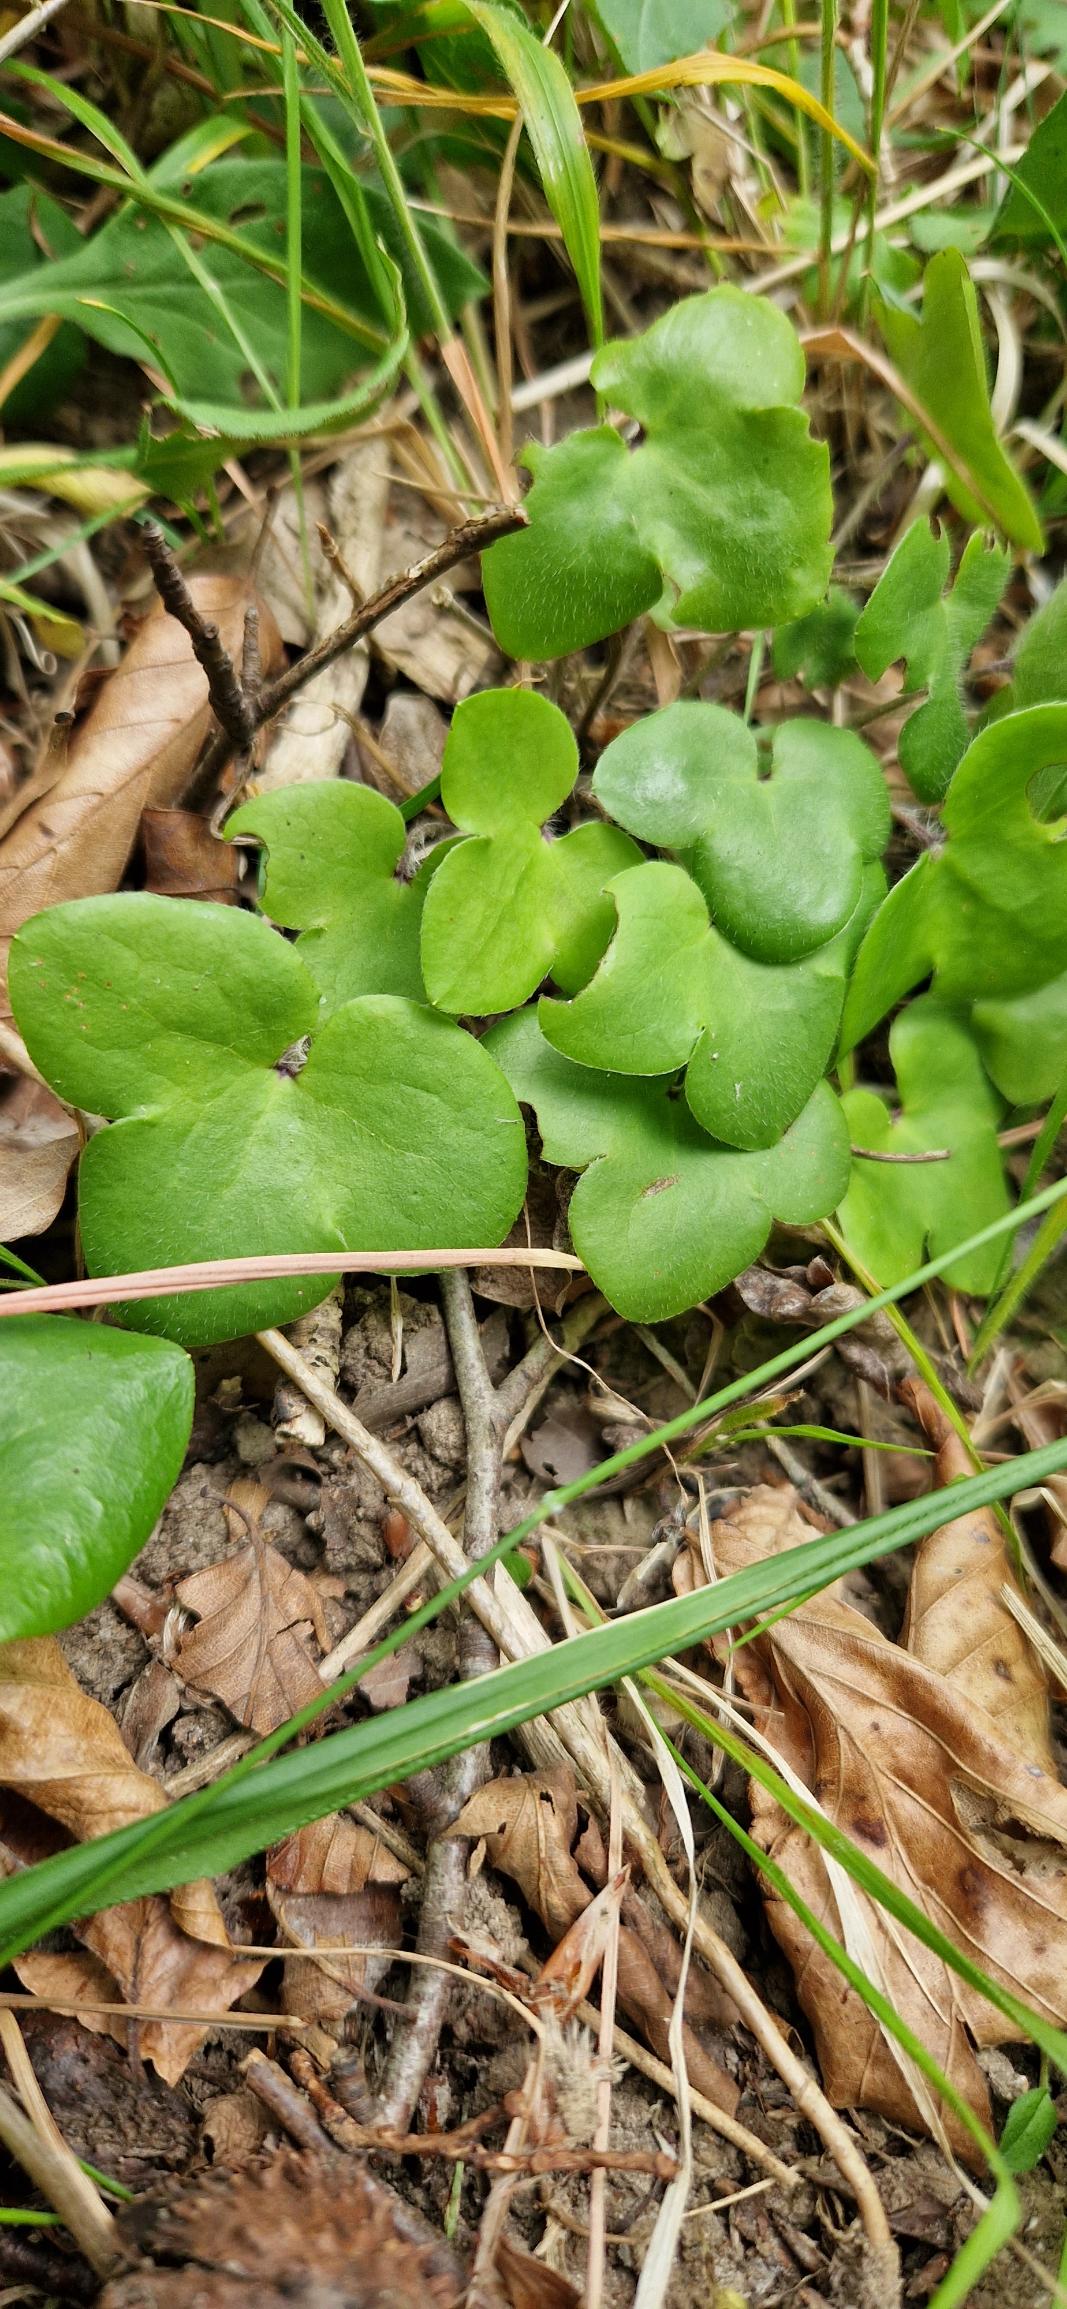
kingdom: Plantae
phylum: Tracheophyta
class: Magnoliopsida
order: Ranunculales
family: Ranunculaceae
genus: Hepatica
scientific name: Hepatica nobilis
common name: Blå anemone
